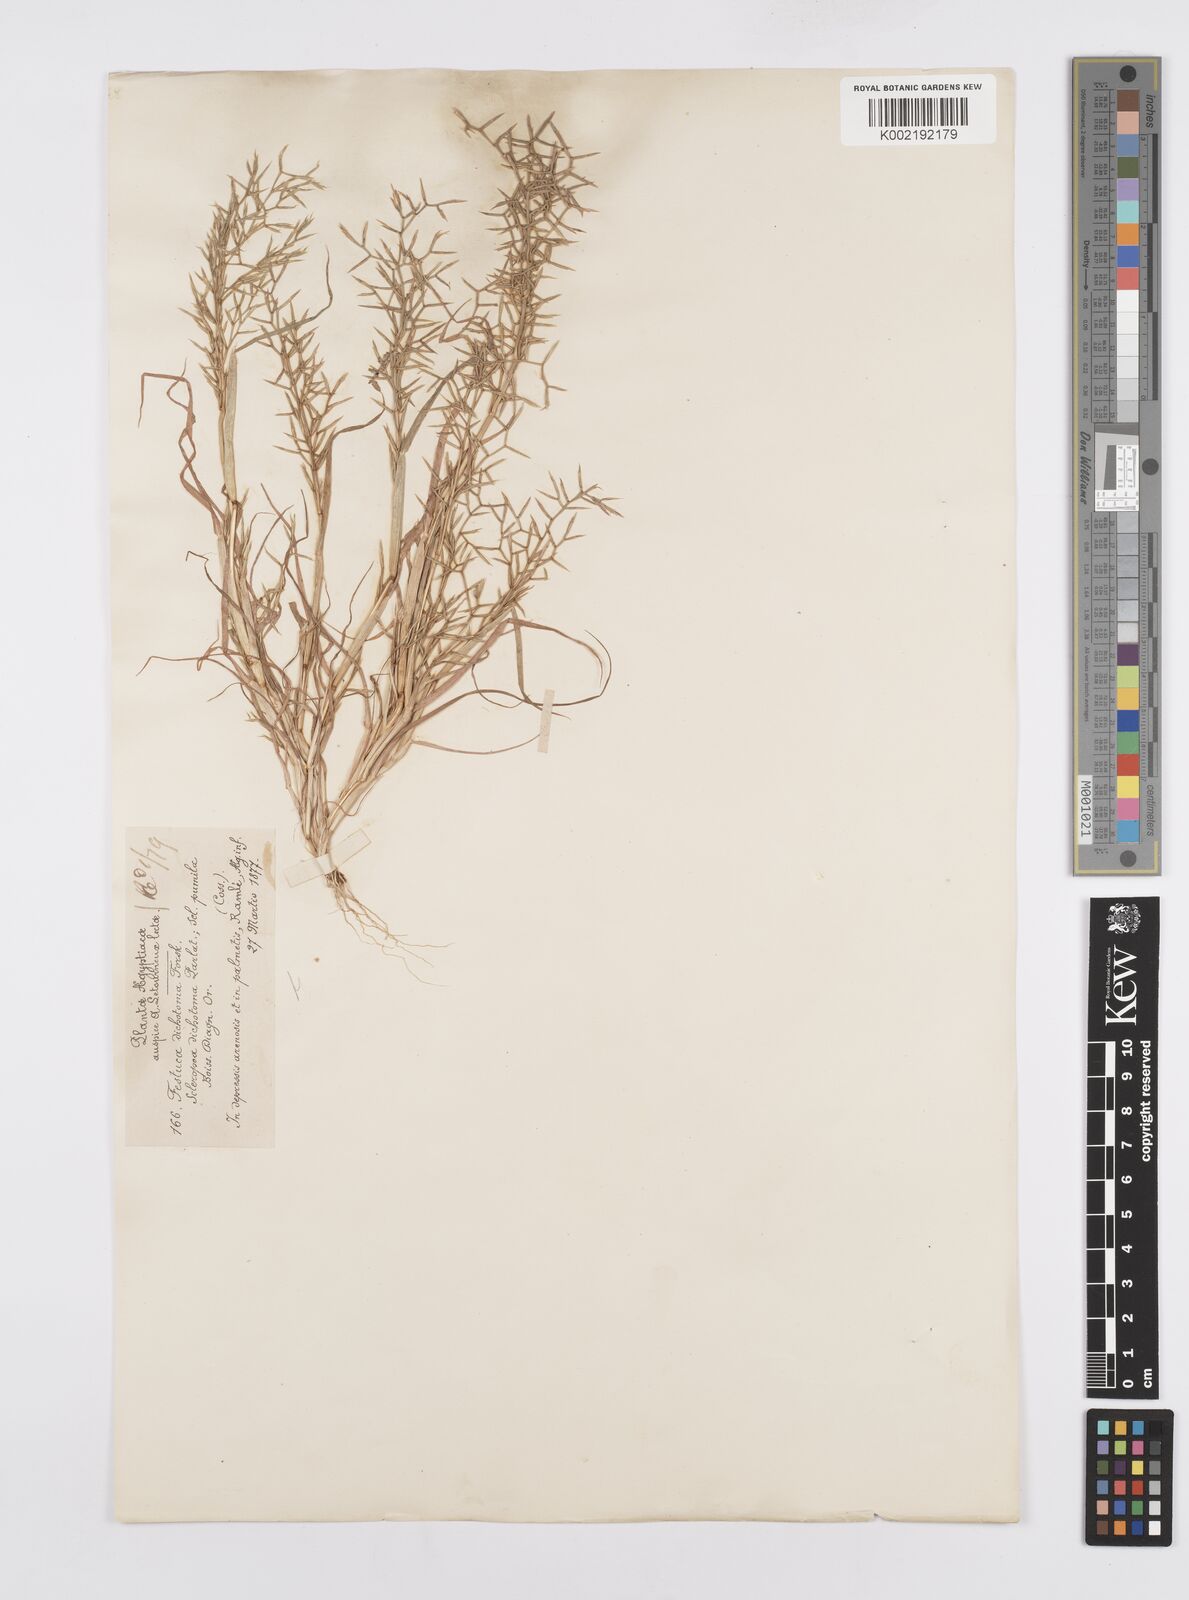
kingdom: Plantae
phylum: Tracheophyta
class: Liliopsida
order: Poales
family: Poaceae
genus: Cutandia
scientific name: Cutandia dichotoma
